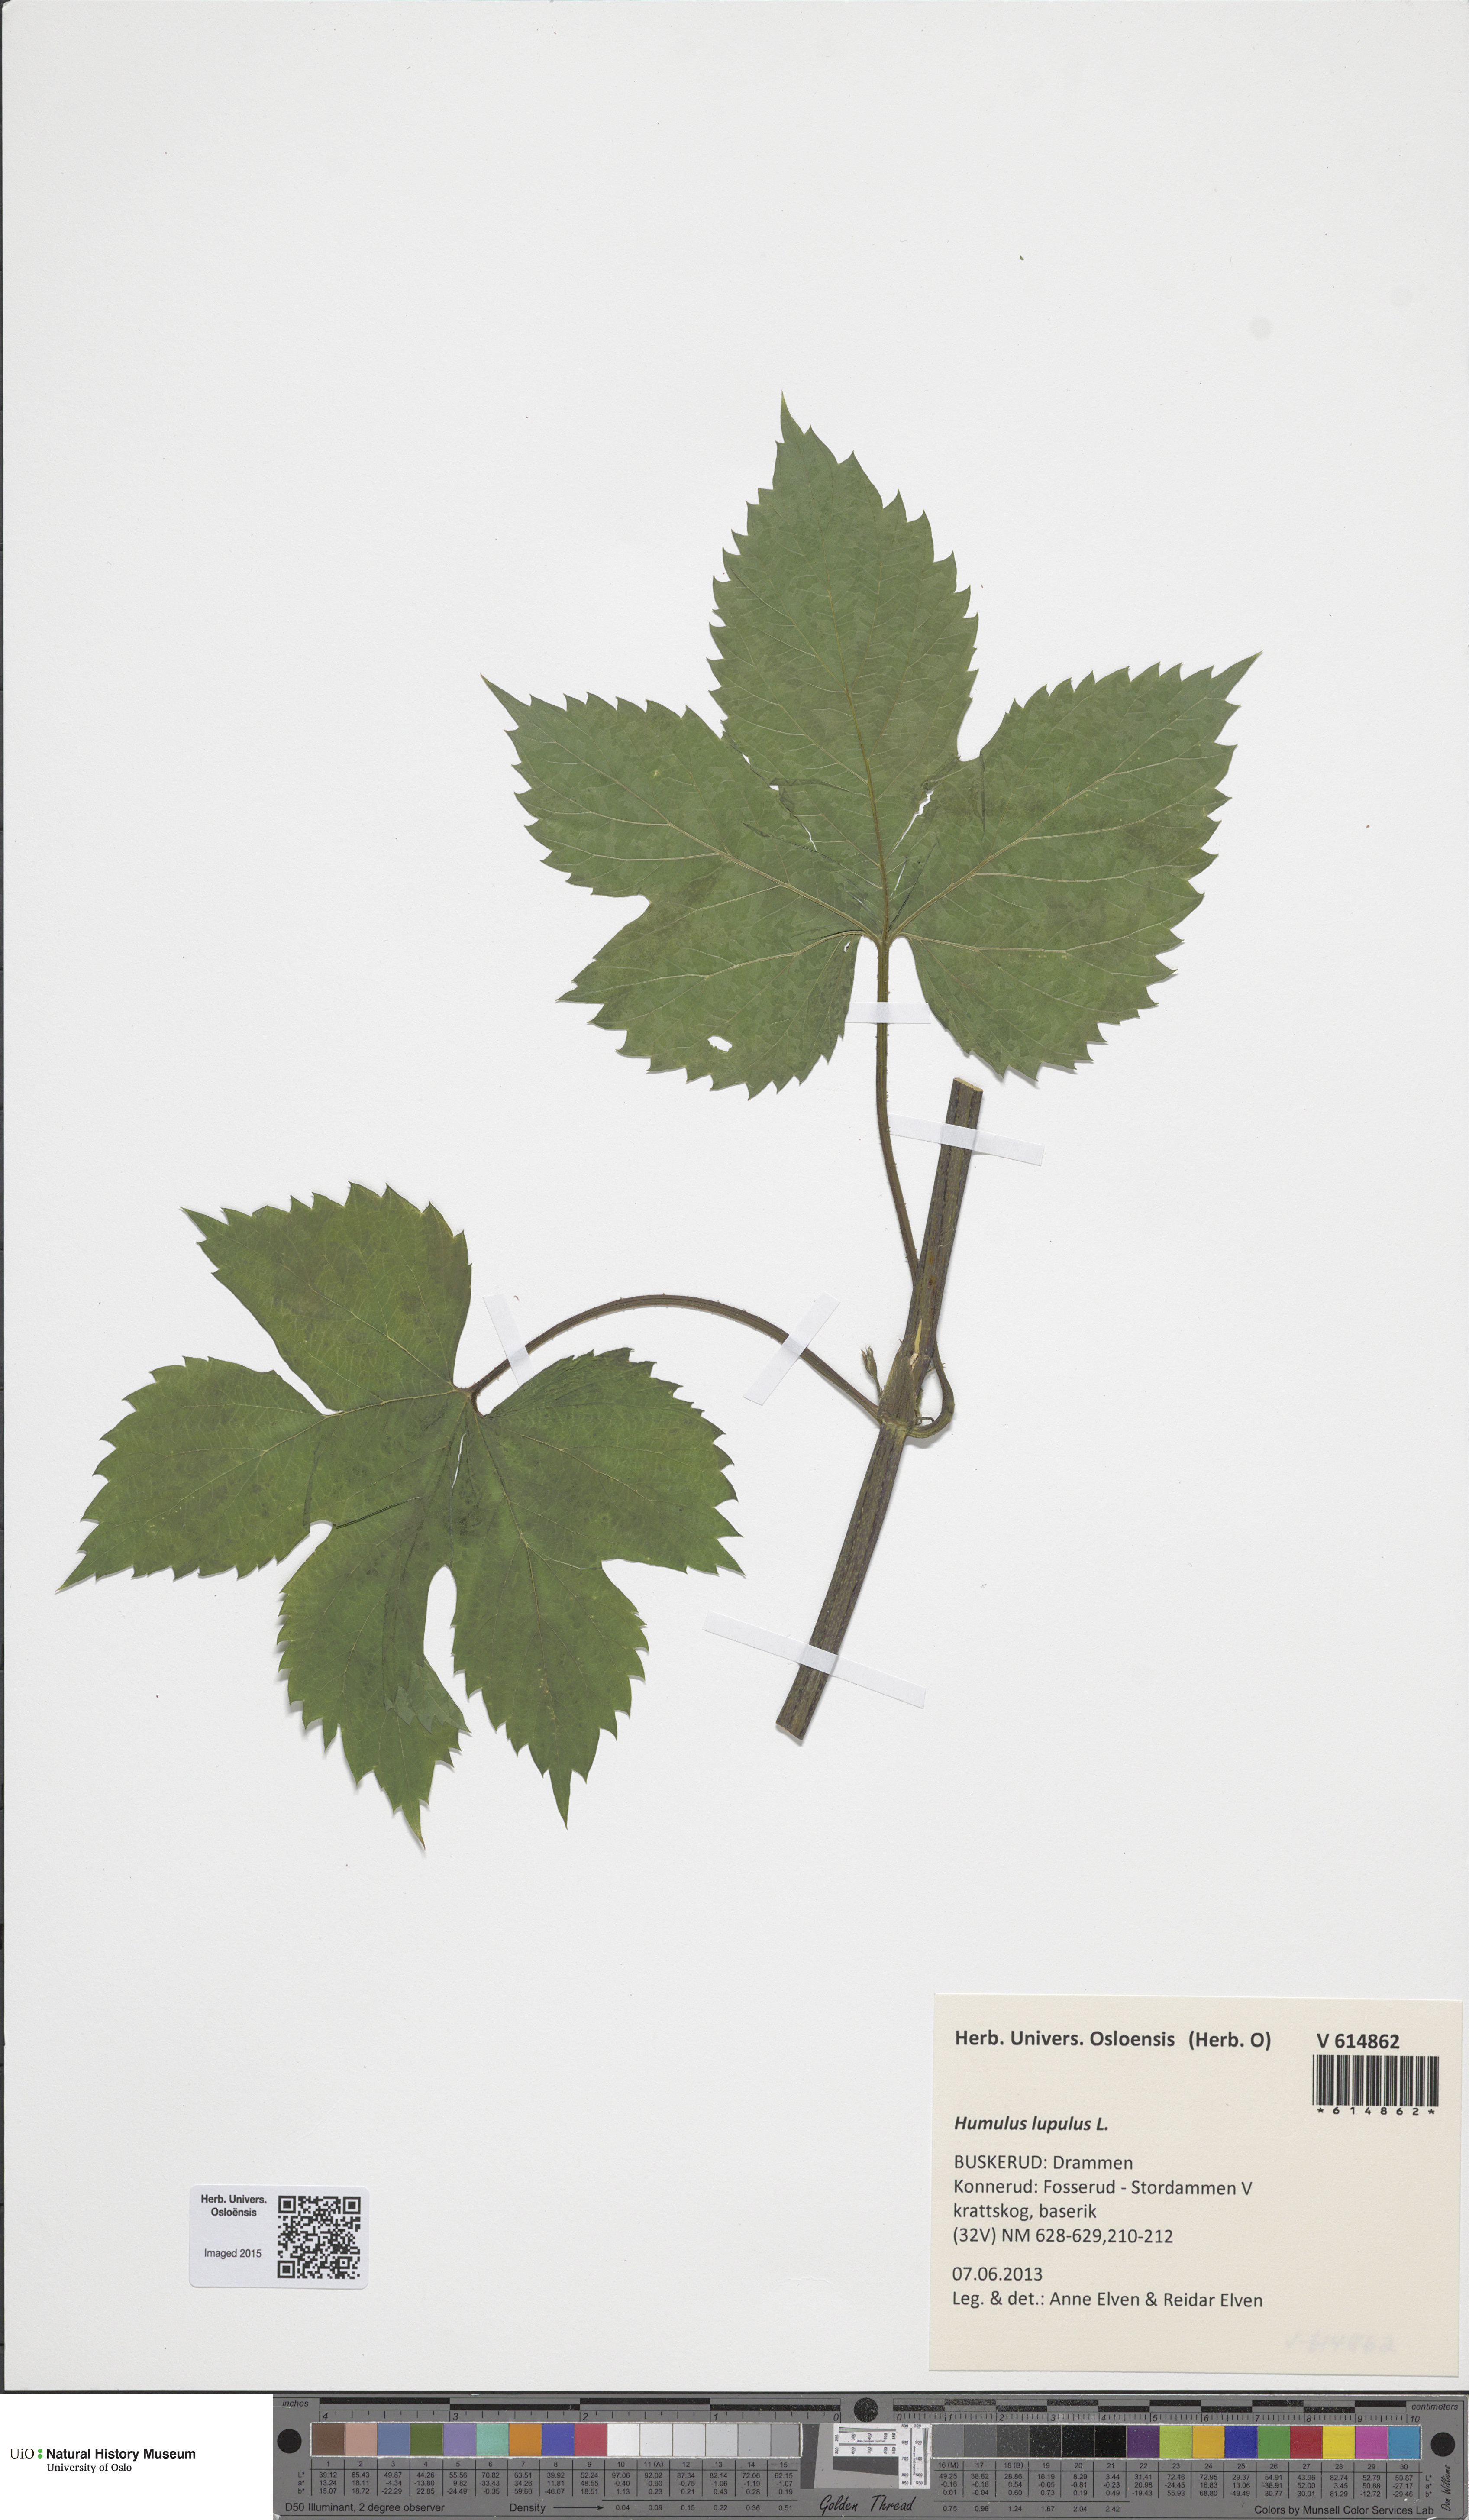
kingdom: Plantae
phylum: Tracheophyta
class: Magnoliopsida
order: Rosales
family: Cannabaceae
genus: Humulus
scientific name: Humulus lupulus
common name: Hop
